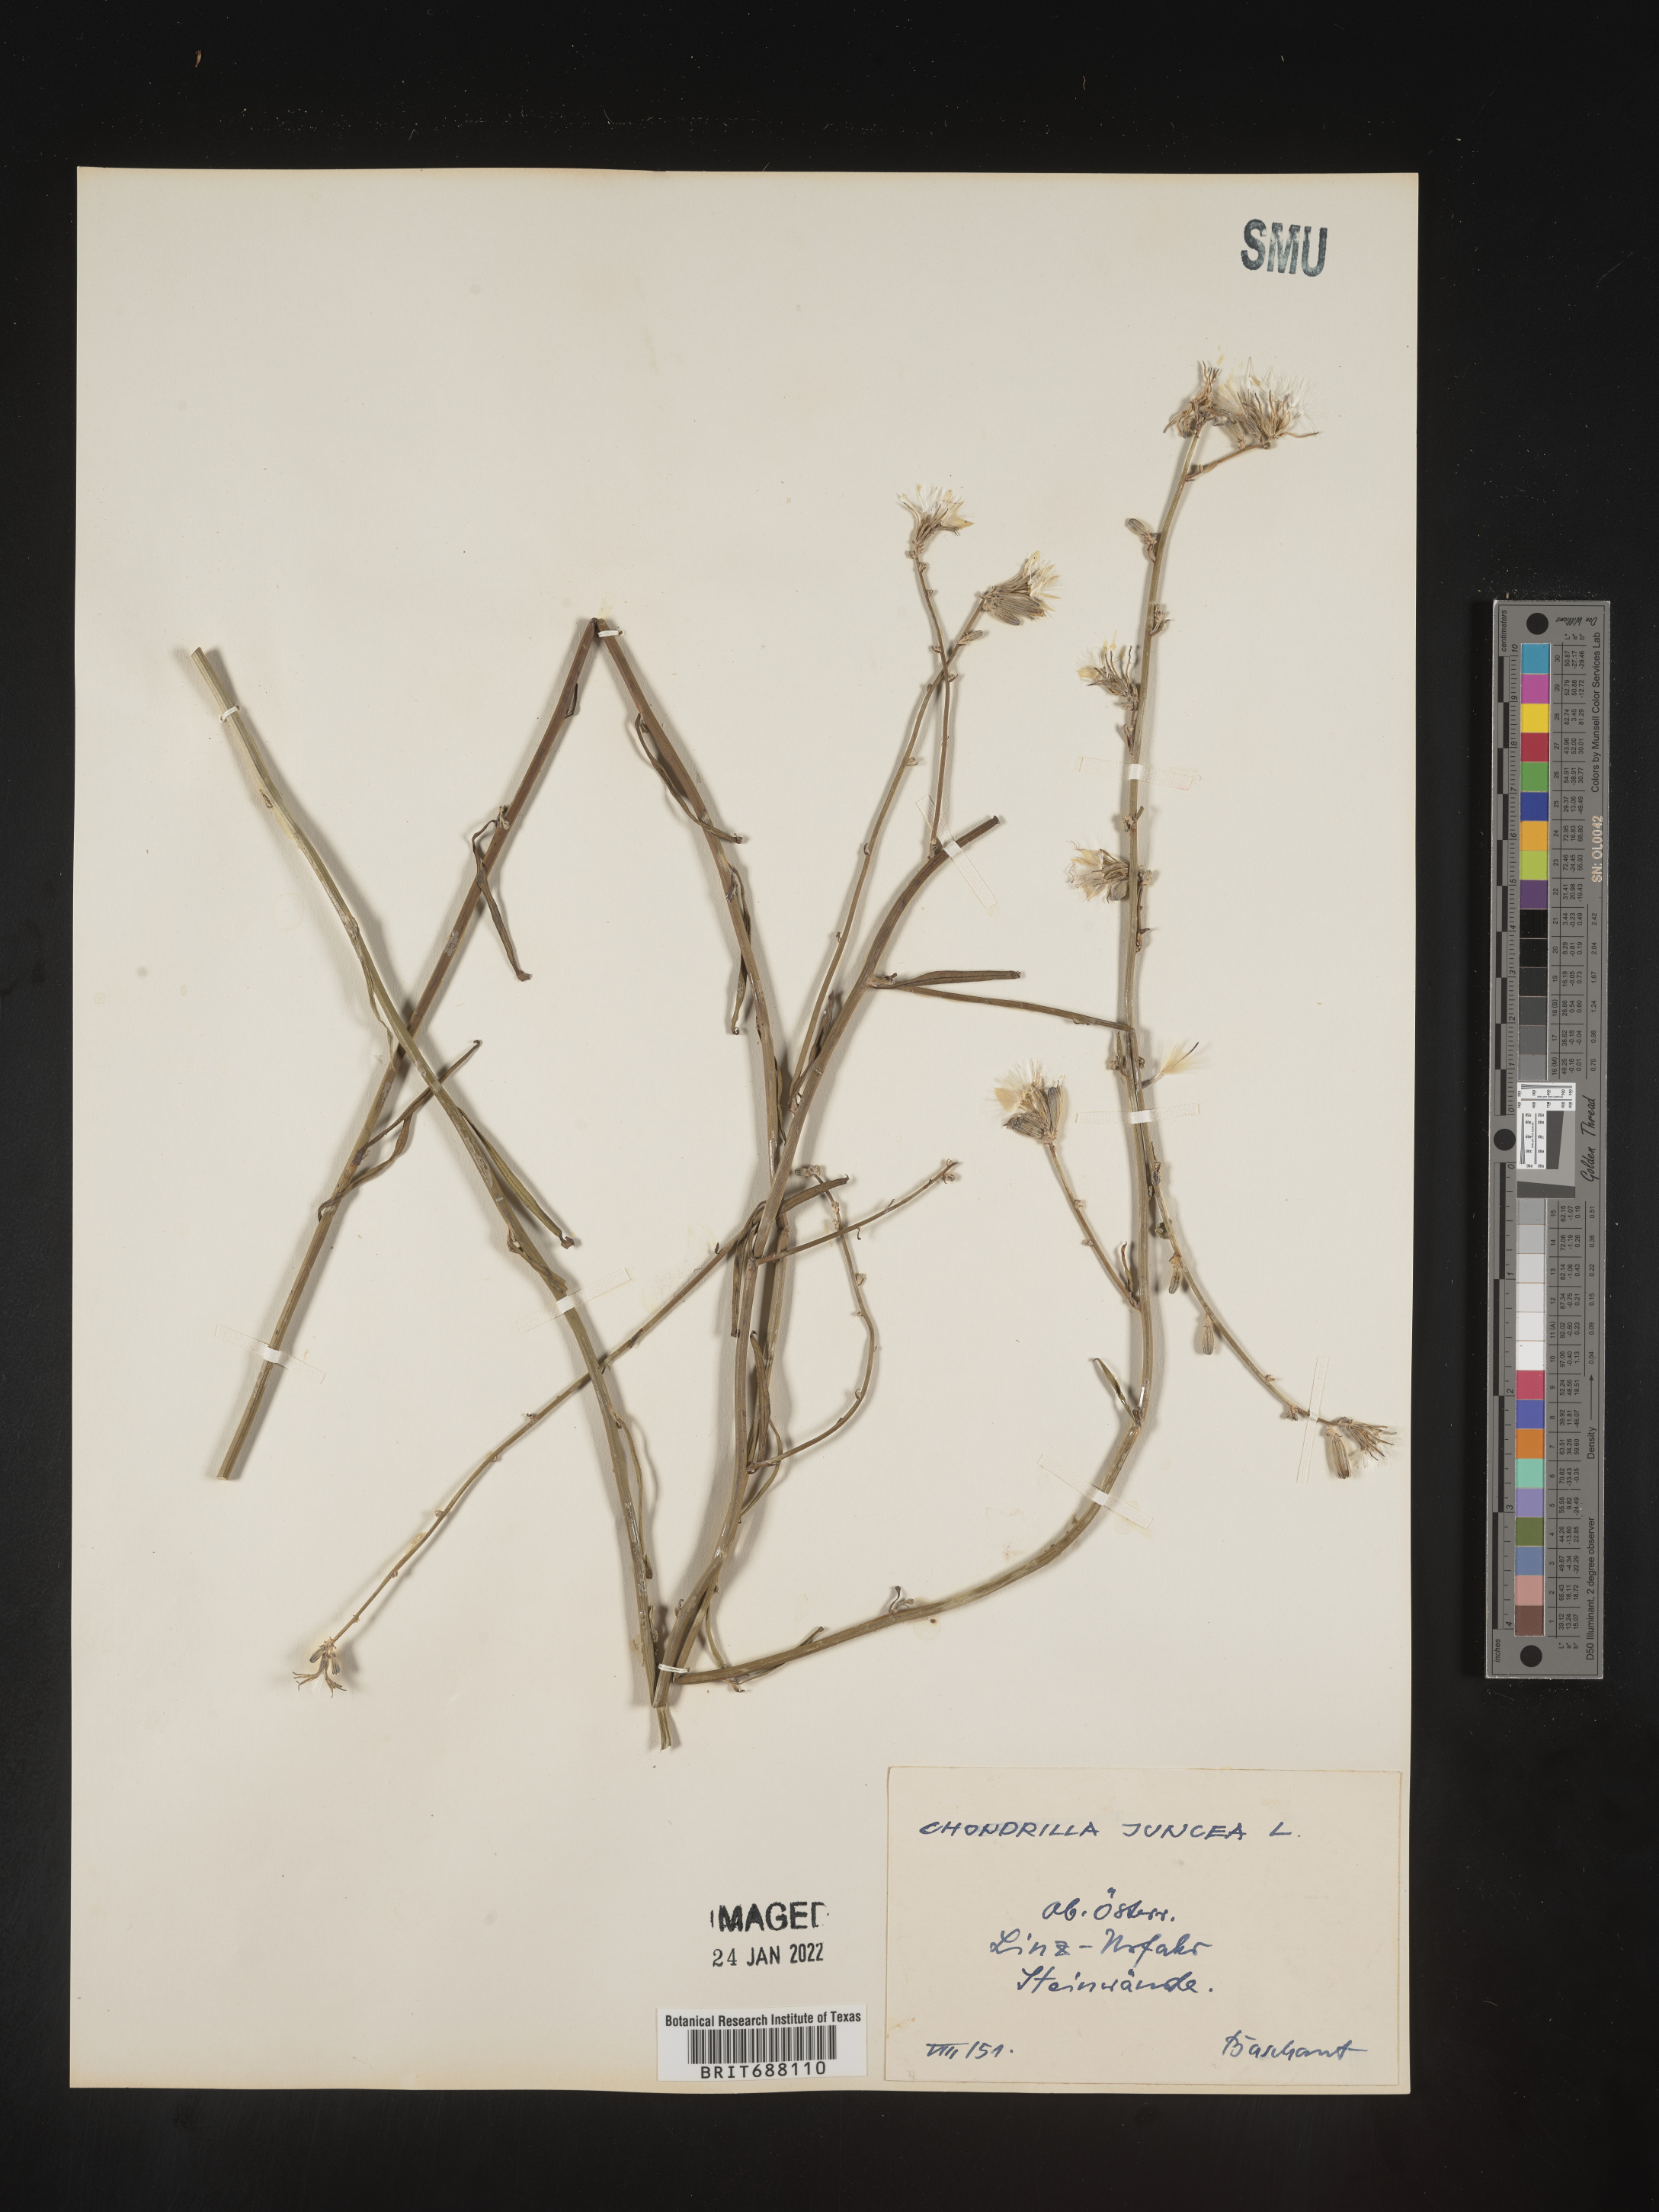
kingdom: Plantae
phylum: Tracheophyta
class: Magnoliopsida
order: Asterales
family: Asteraceae
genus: Chondrilla
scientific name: Chondrilla
